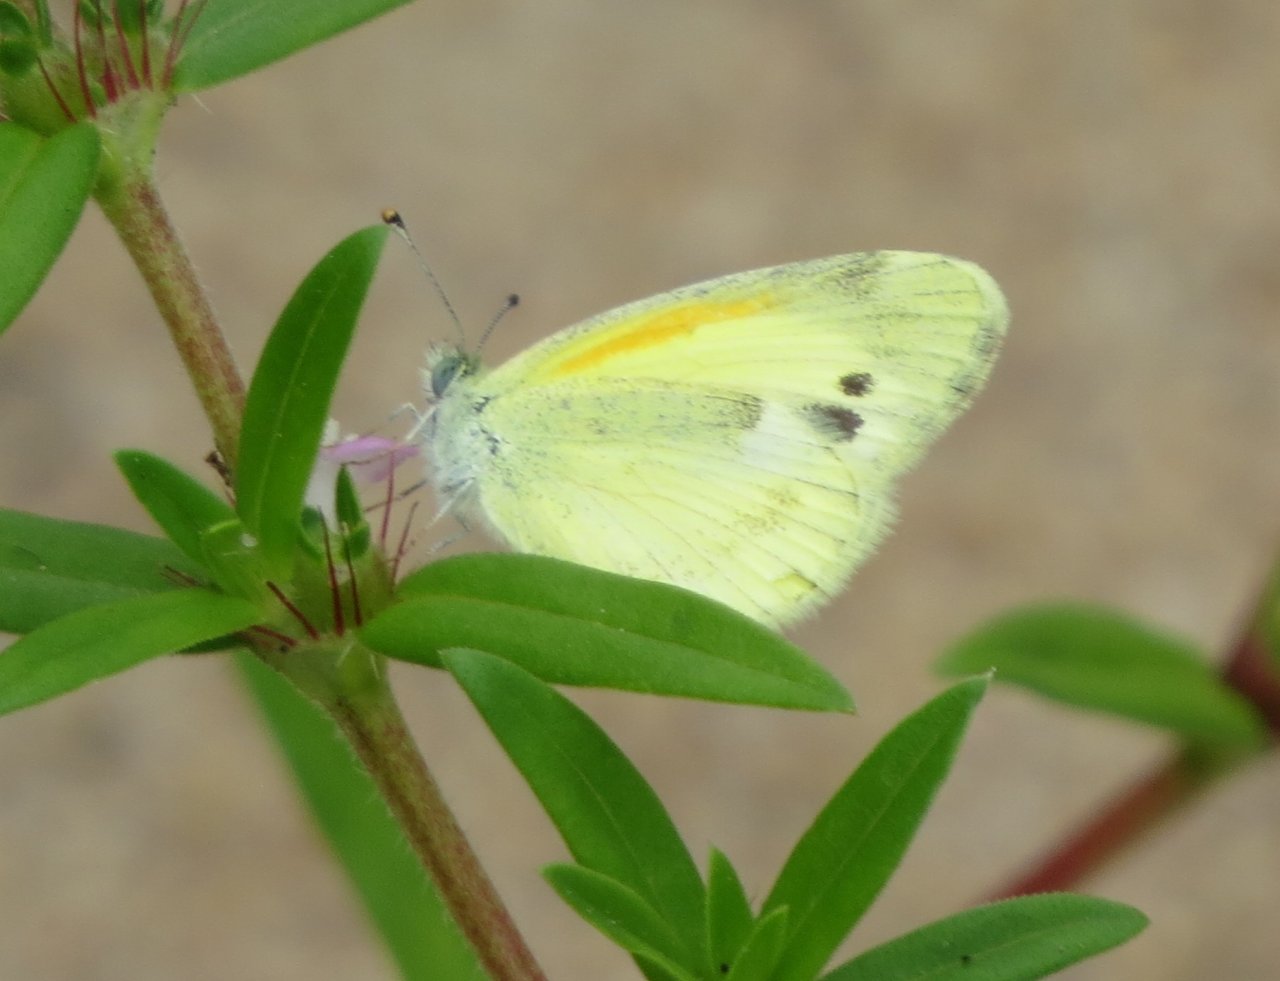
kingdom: Animalia
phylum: Arthropoda
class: Insecta
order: Lepidoptera
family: Pieridae
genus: Nathalis
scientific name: Nathalis iole
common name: Dainty Sulphur
